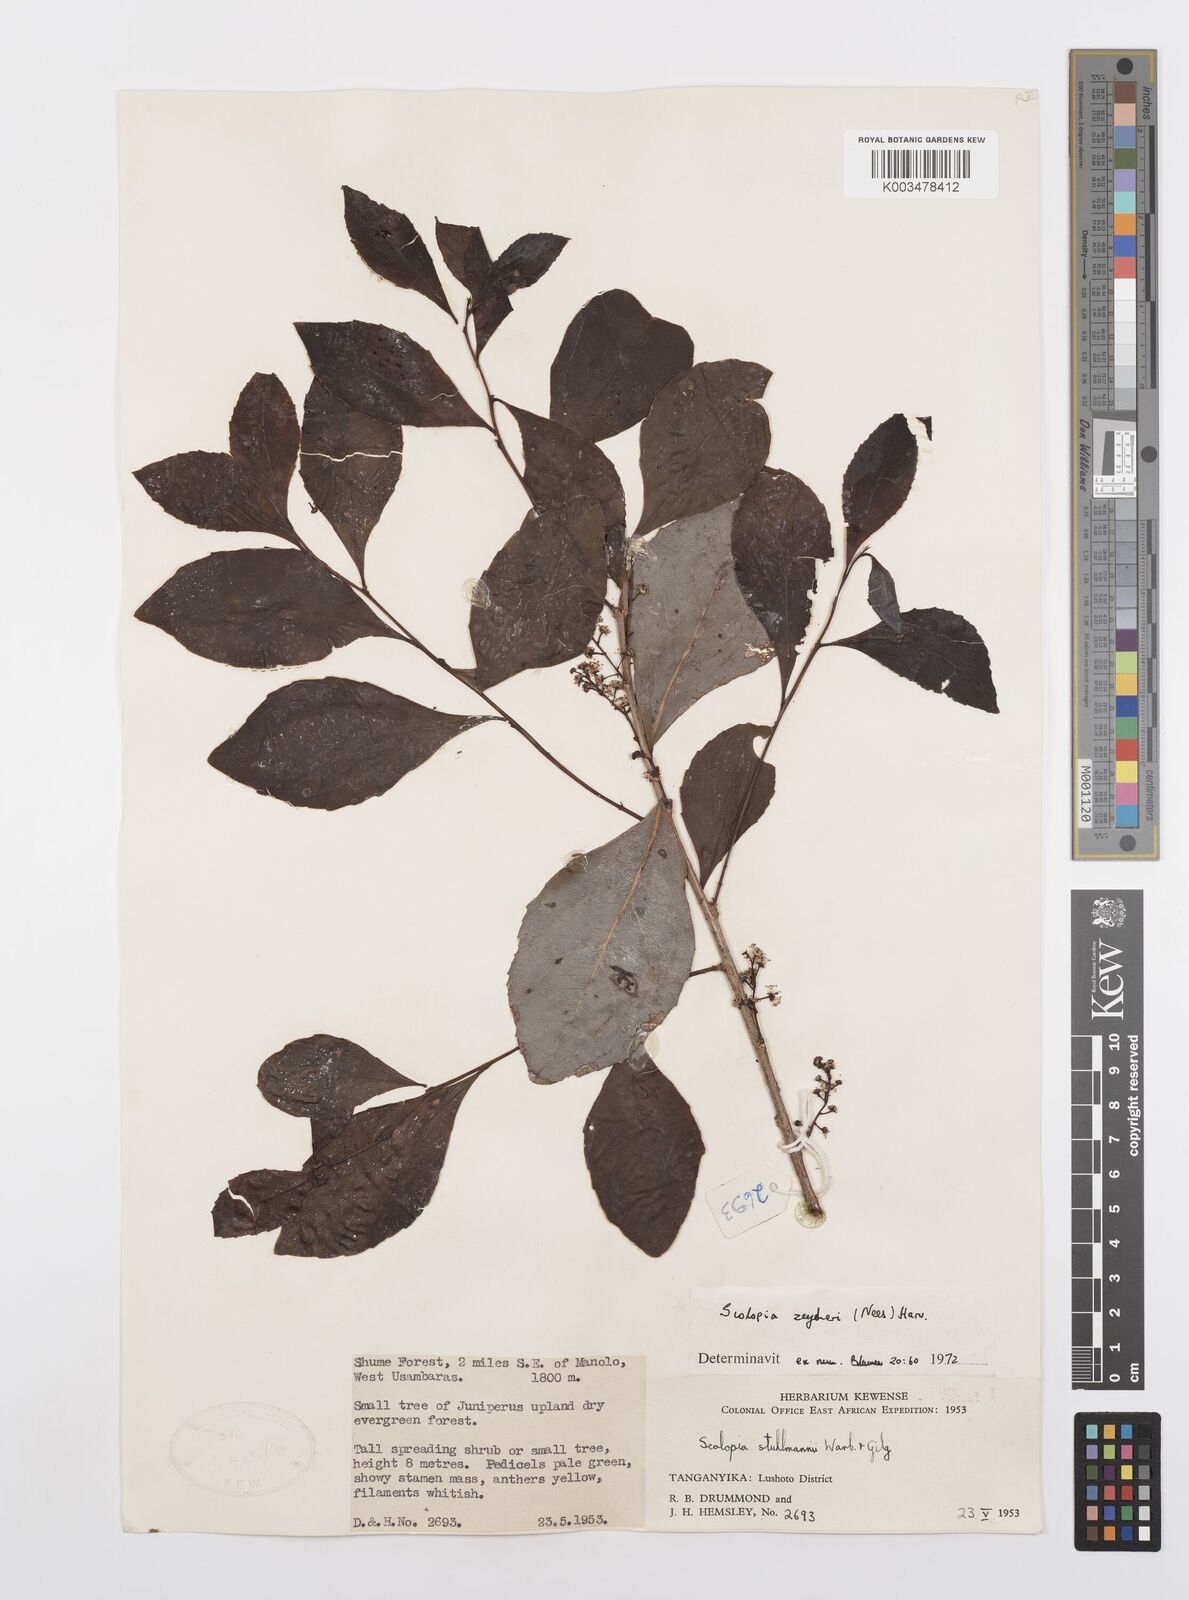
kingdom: Plantae
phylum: Tracheophyta
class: Magnoliopsida
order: Malpighiales
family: Salicaceae
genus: Scolopia
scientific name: Scolopia zeyheri
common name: Thorn pear
